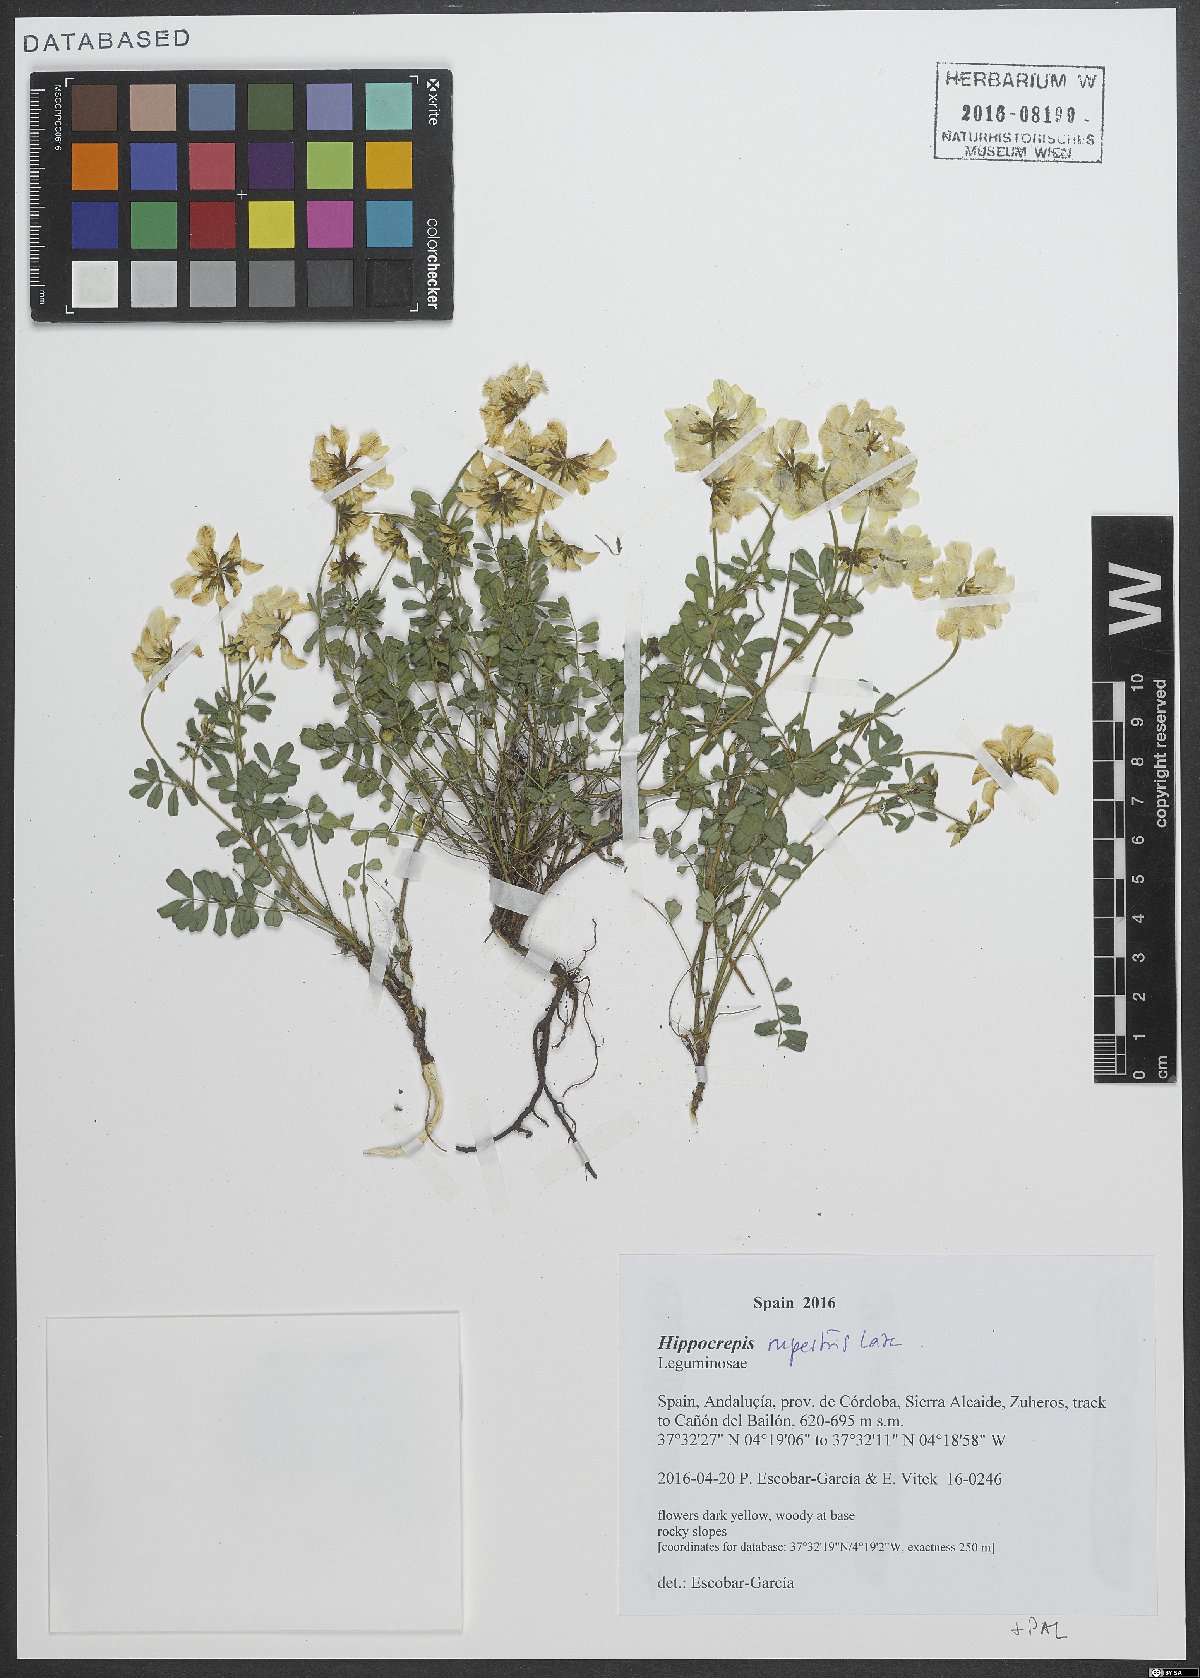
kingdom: Plantae
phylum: Tracheophyta
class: Magnoliopsida
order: Fabales
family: Fabaceae
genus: Hippocrepis
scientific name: Hippocrepis rupestris
